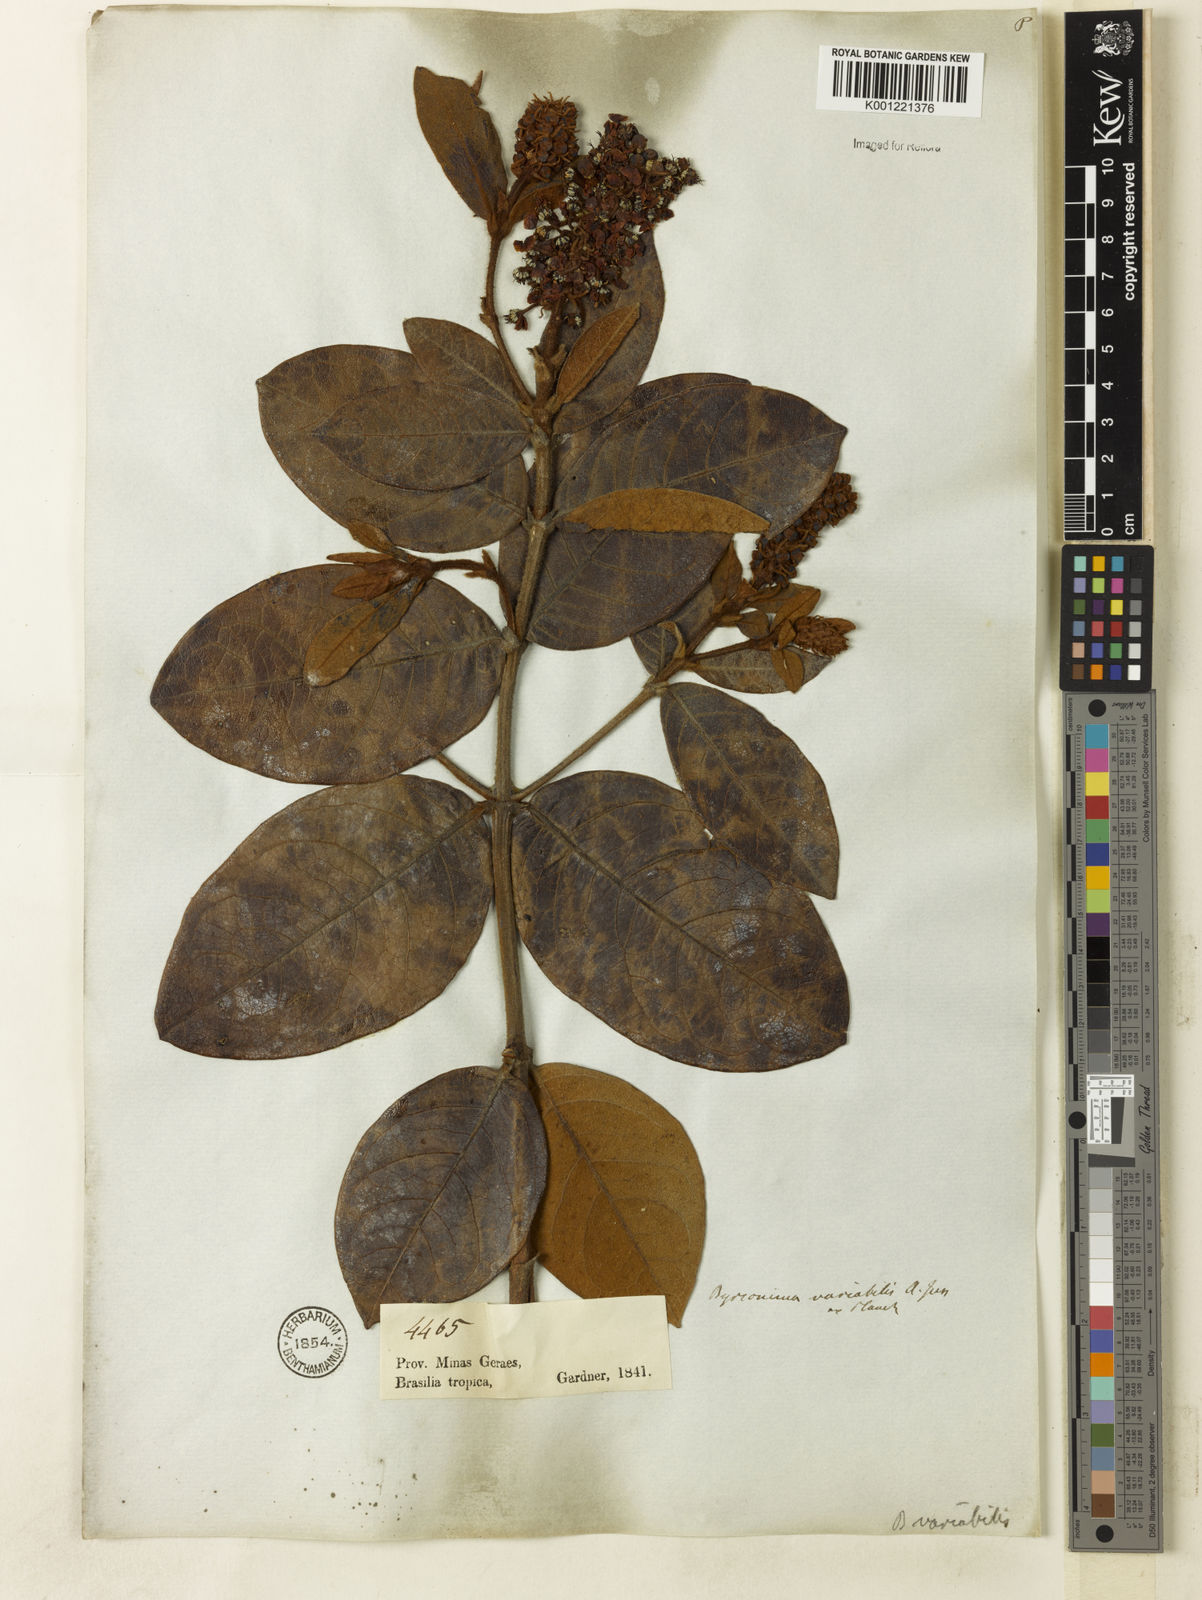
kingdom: Plantae
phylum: Tracheophyta
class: Magnoliopsida
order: Malpighiales
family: Malpighiaceae
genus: Byrsonima
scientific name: Byrsonima variabilis
